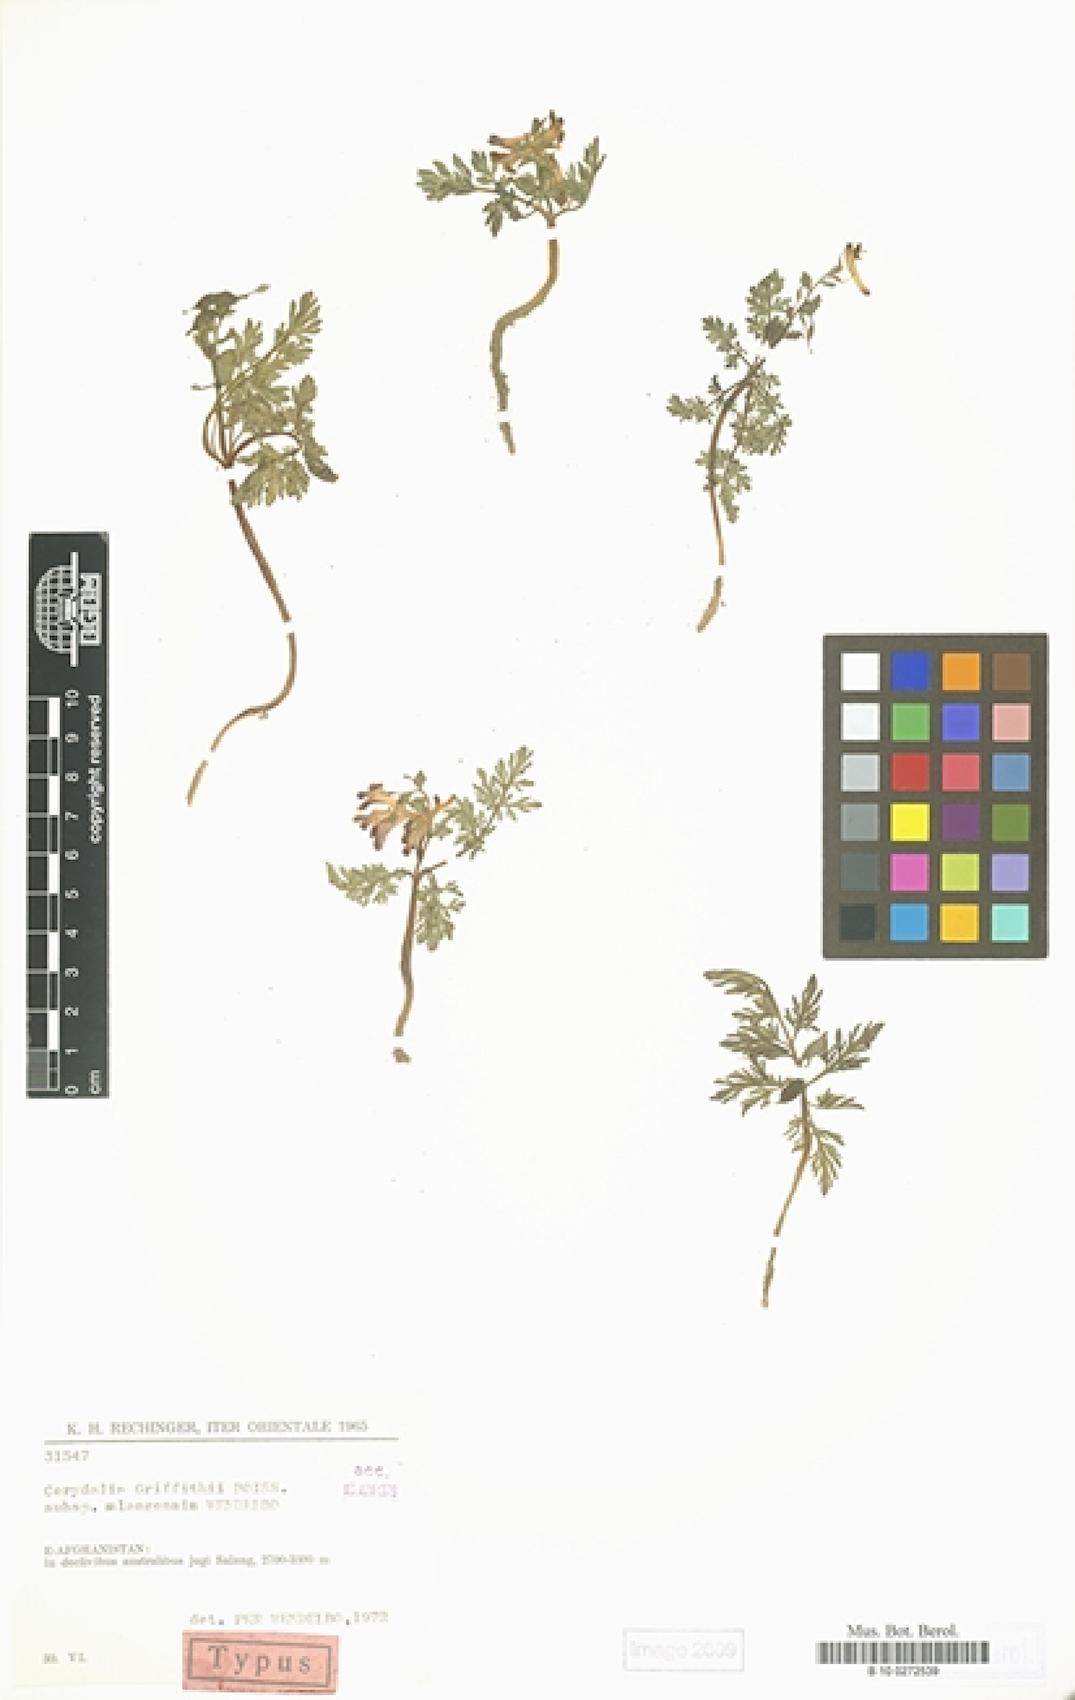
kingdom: Plantae
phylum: Tracheophyta
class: Magnoliopsida
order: Ranunculales
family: Papaveraceae
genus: Corydalis
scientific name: Corydalis griffithii
